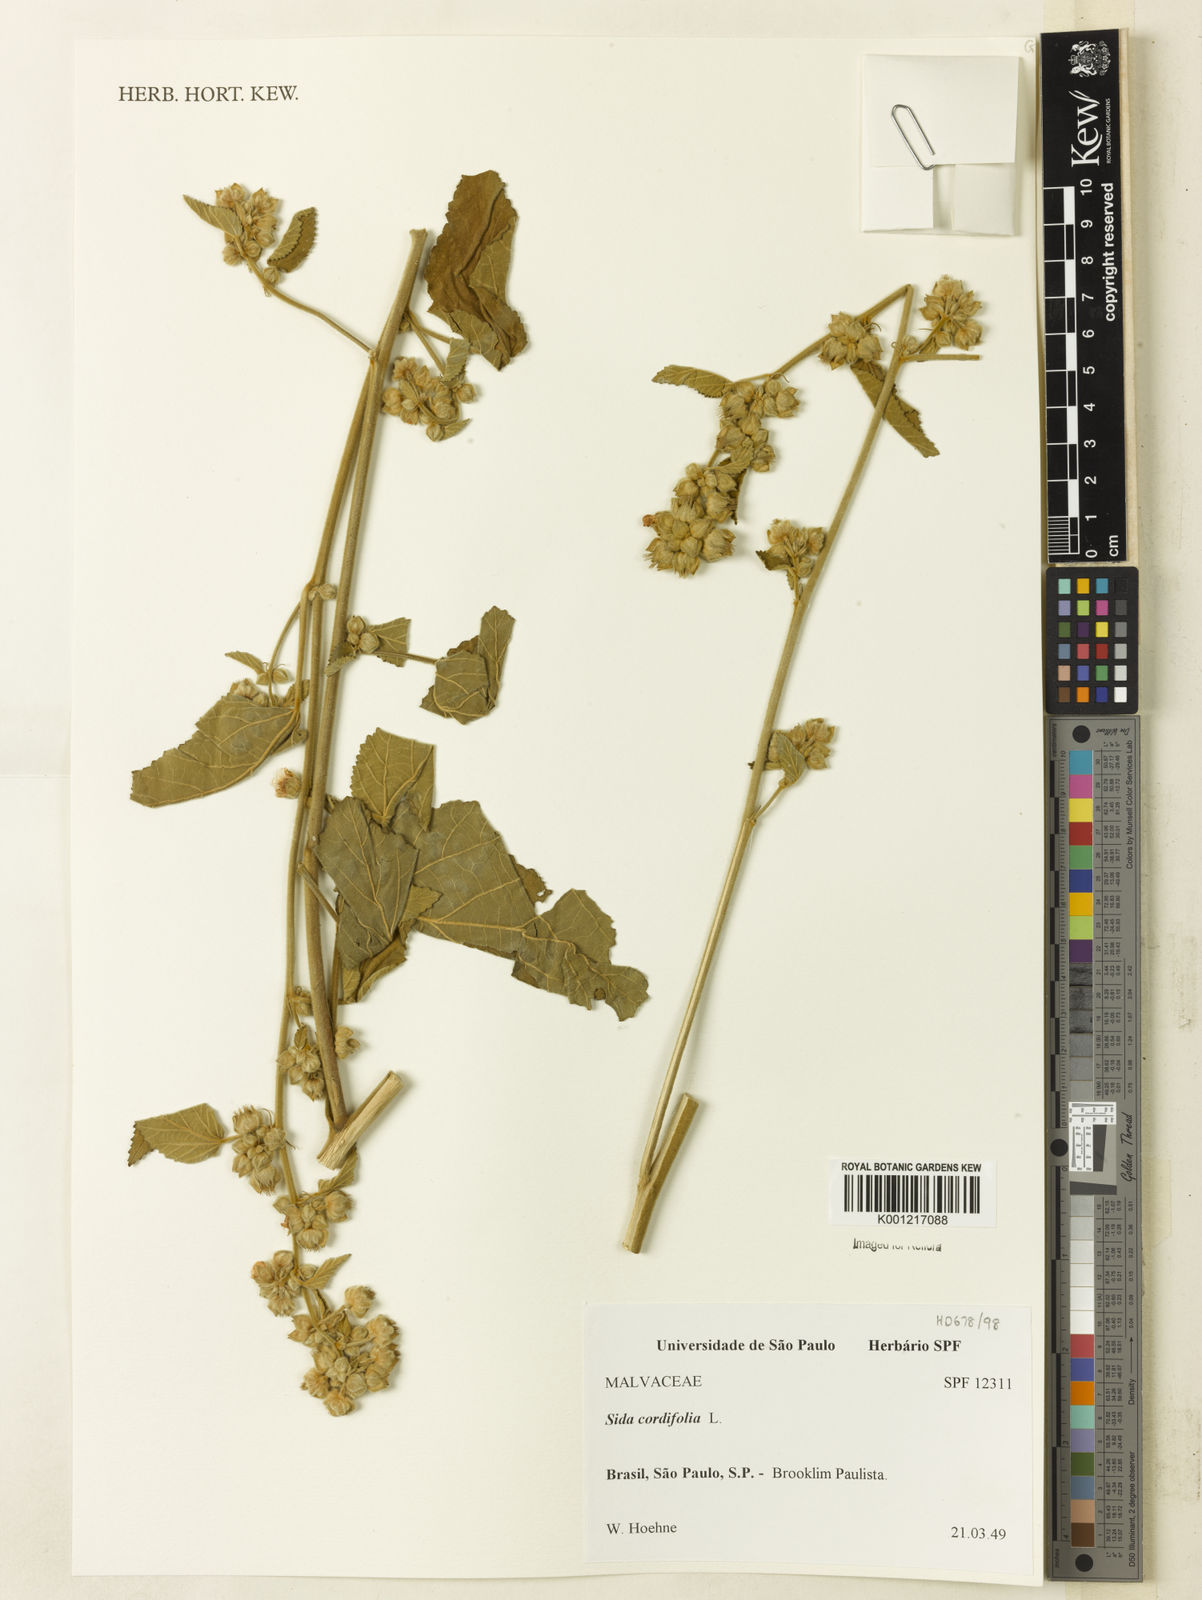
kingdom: Plantae
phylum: Tracheophyta
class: Magnoliopsida
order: Malvales
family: Malvaceae
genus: Sida
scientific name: Sida cordifolia
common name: Ilima
